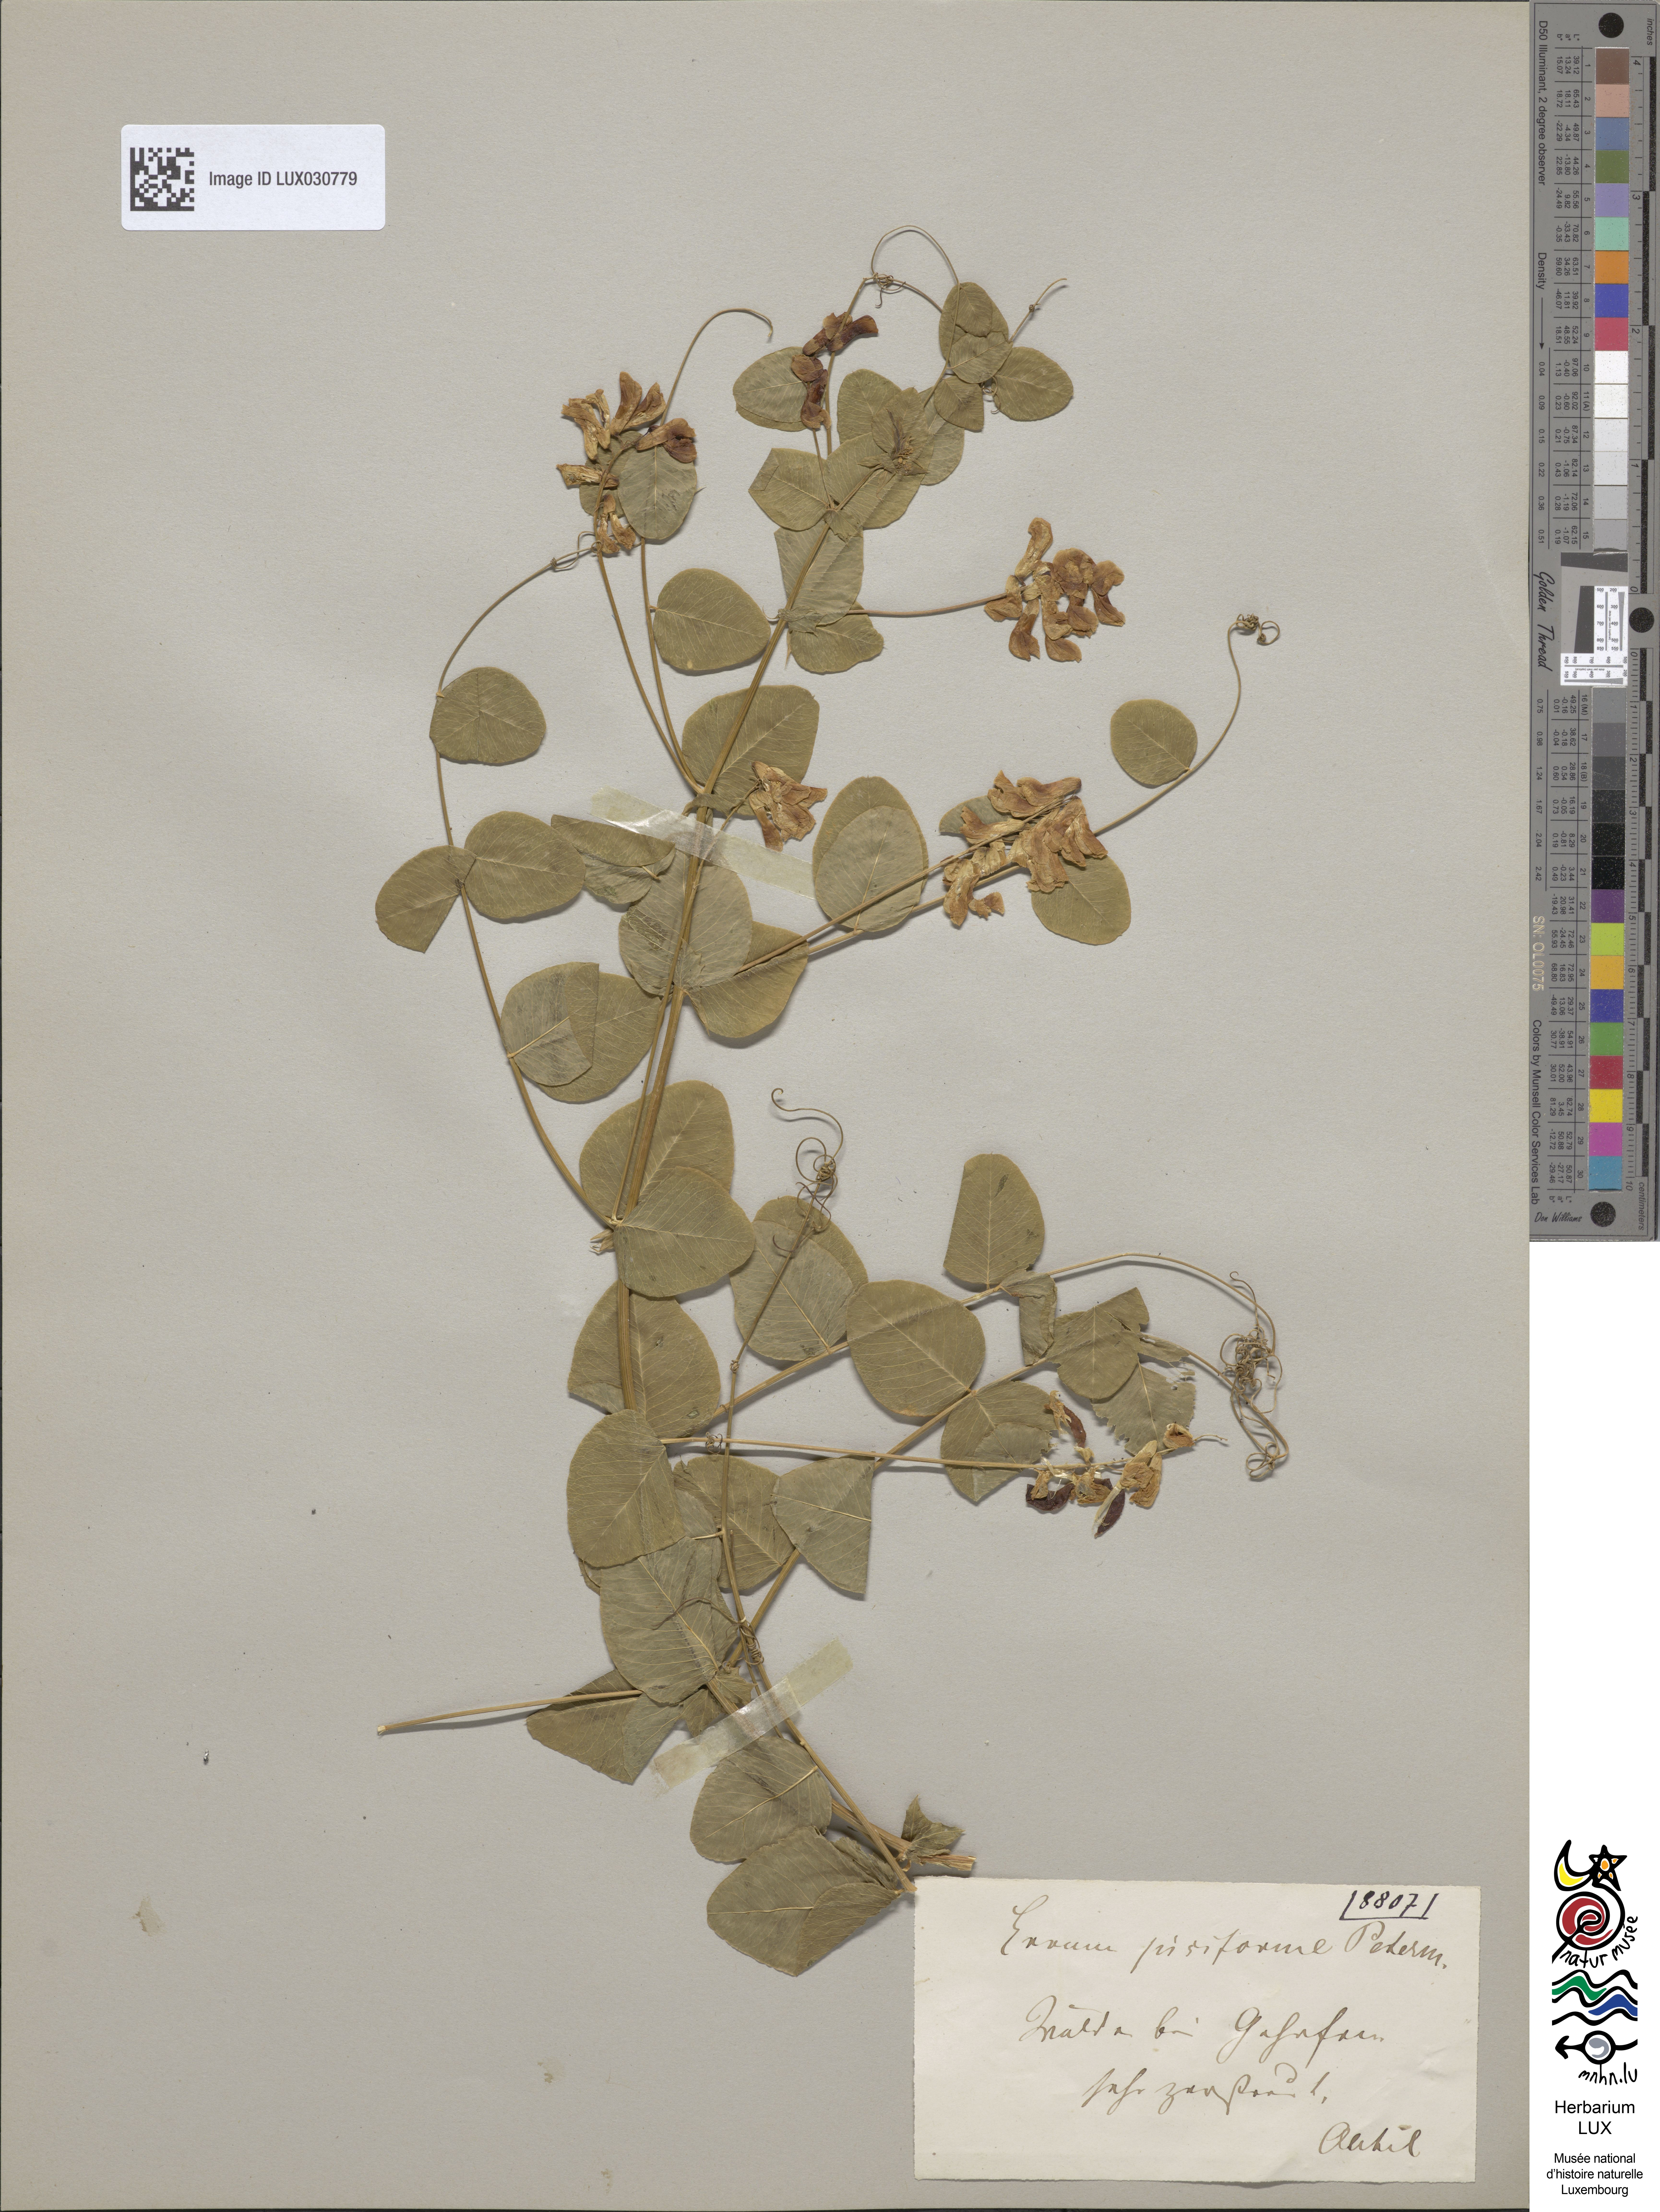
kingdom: Plantae
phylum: Tracheophyta
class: Magnoliopsida
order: Fabales
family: Fabaceae
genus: Vicia
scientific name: Vicia pisiformis
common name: Pale-flower vetch
